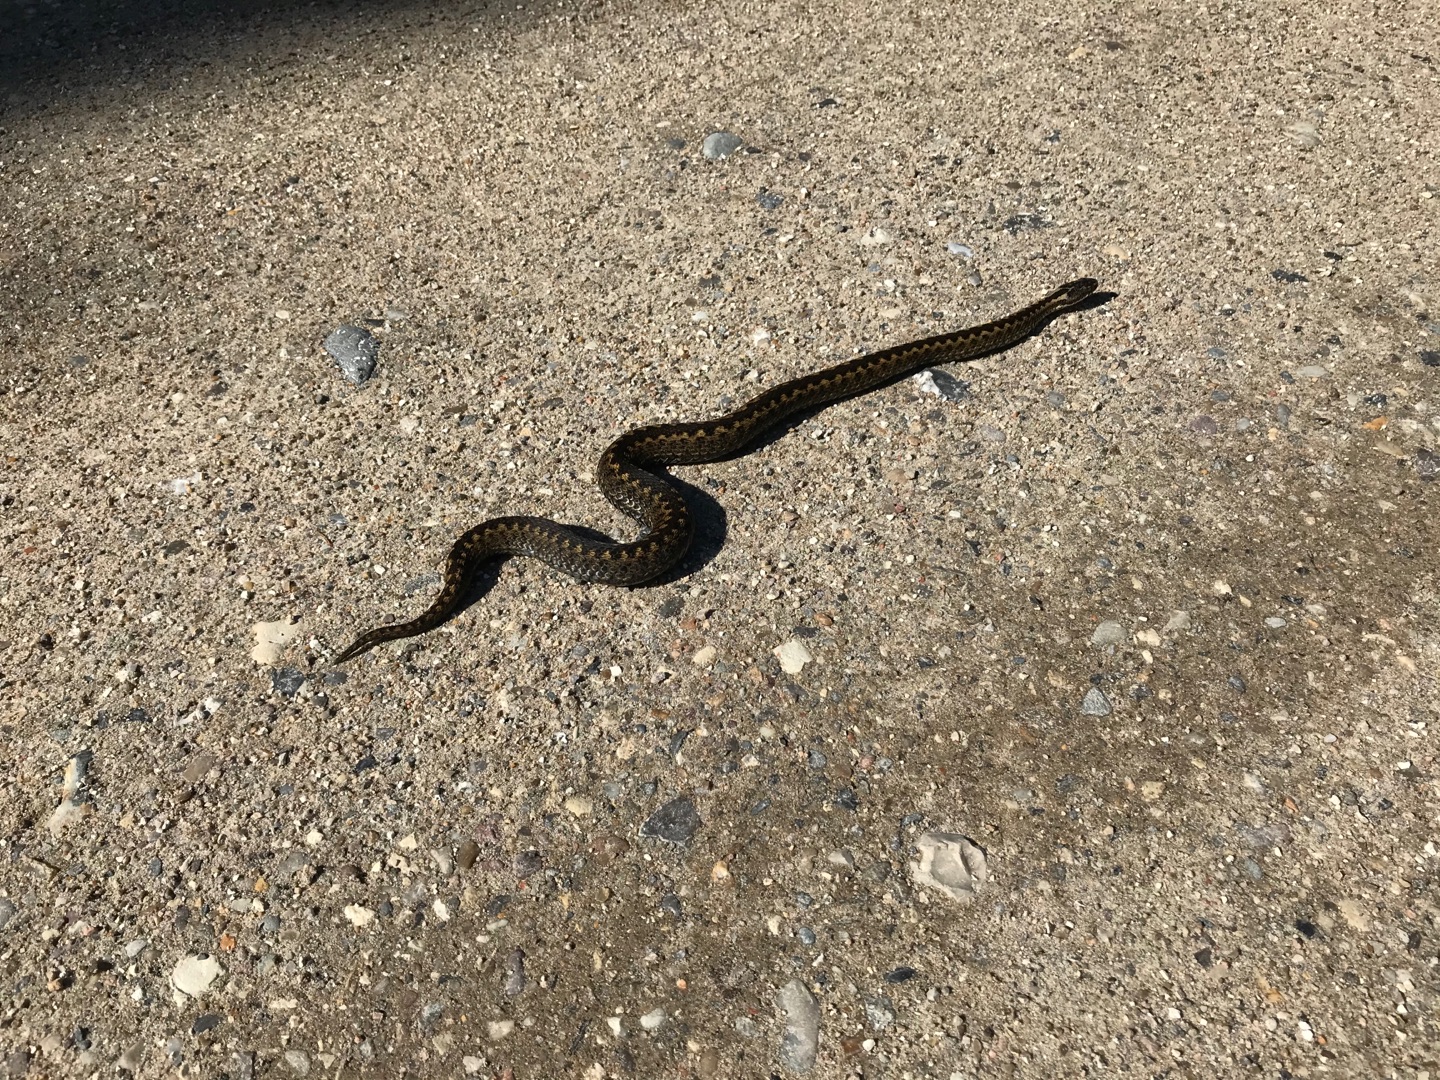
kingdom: Animalia
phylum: Chordata
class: Squamata
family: Viperidae
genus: Vipera
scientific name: Vipera berus
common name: Hugorm
